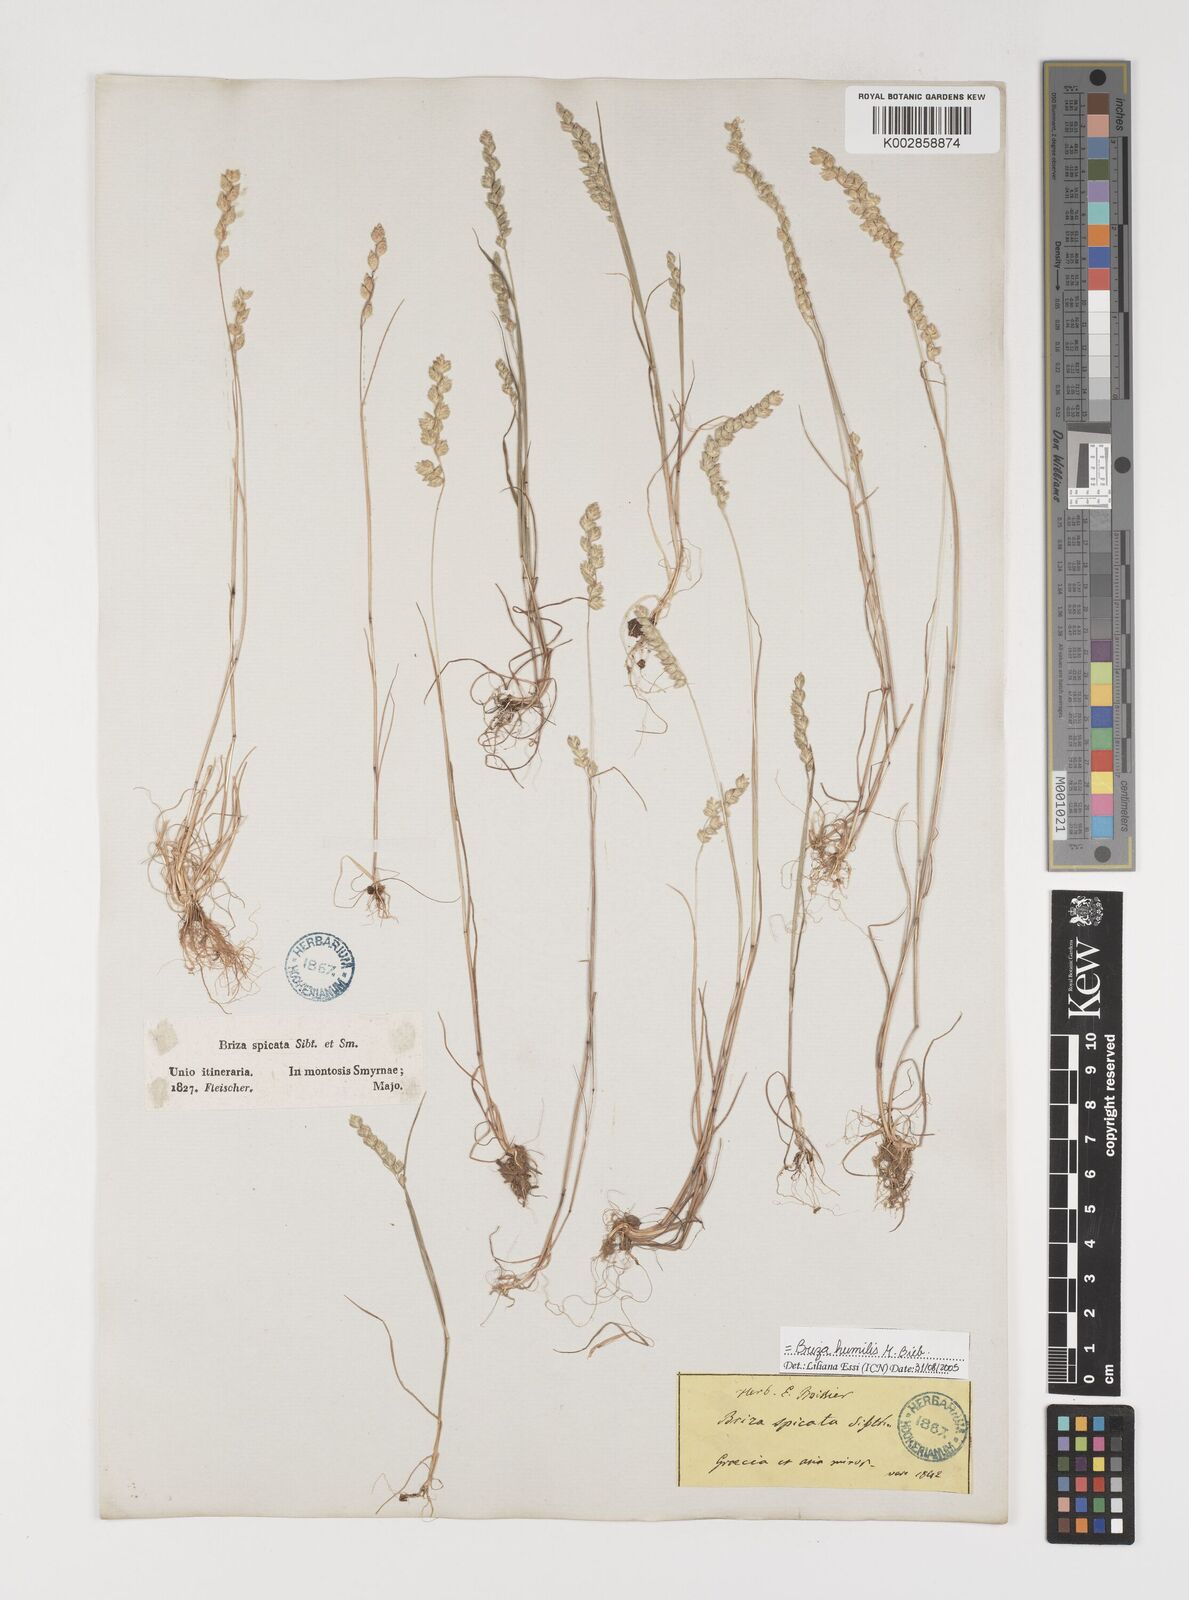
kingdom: Plantae
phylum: Tracheophyta
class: Liliopsida
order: Poales
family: Poaceae
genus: Briza
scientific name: Briza humilis
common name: Spiked quaking grass
